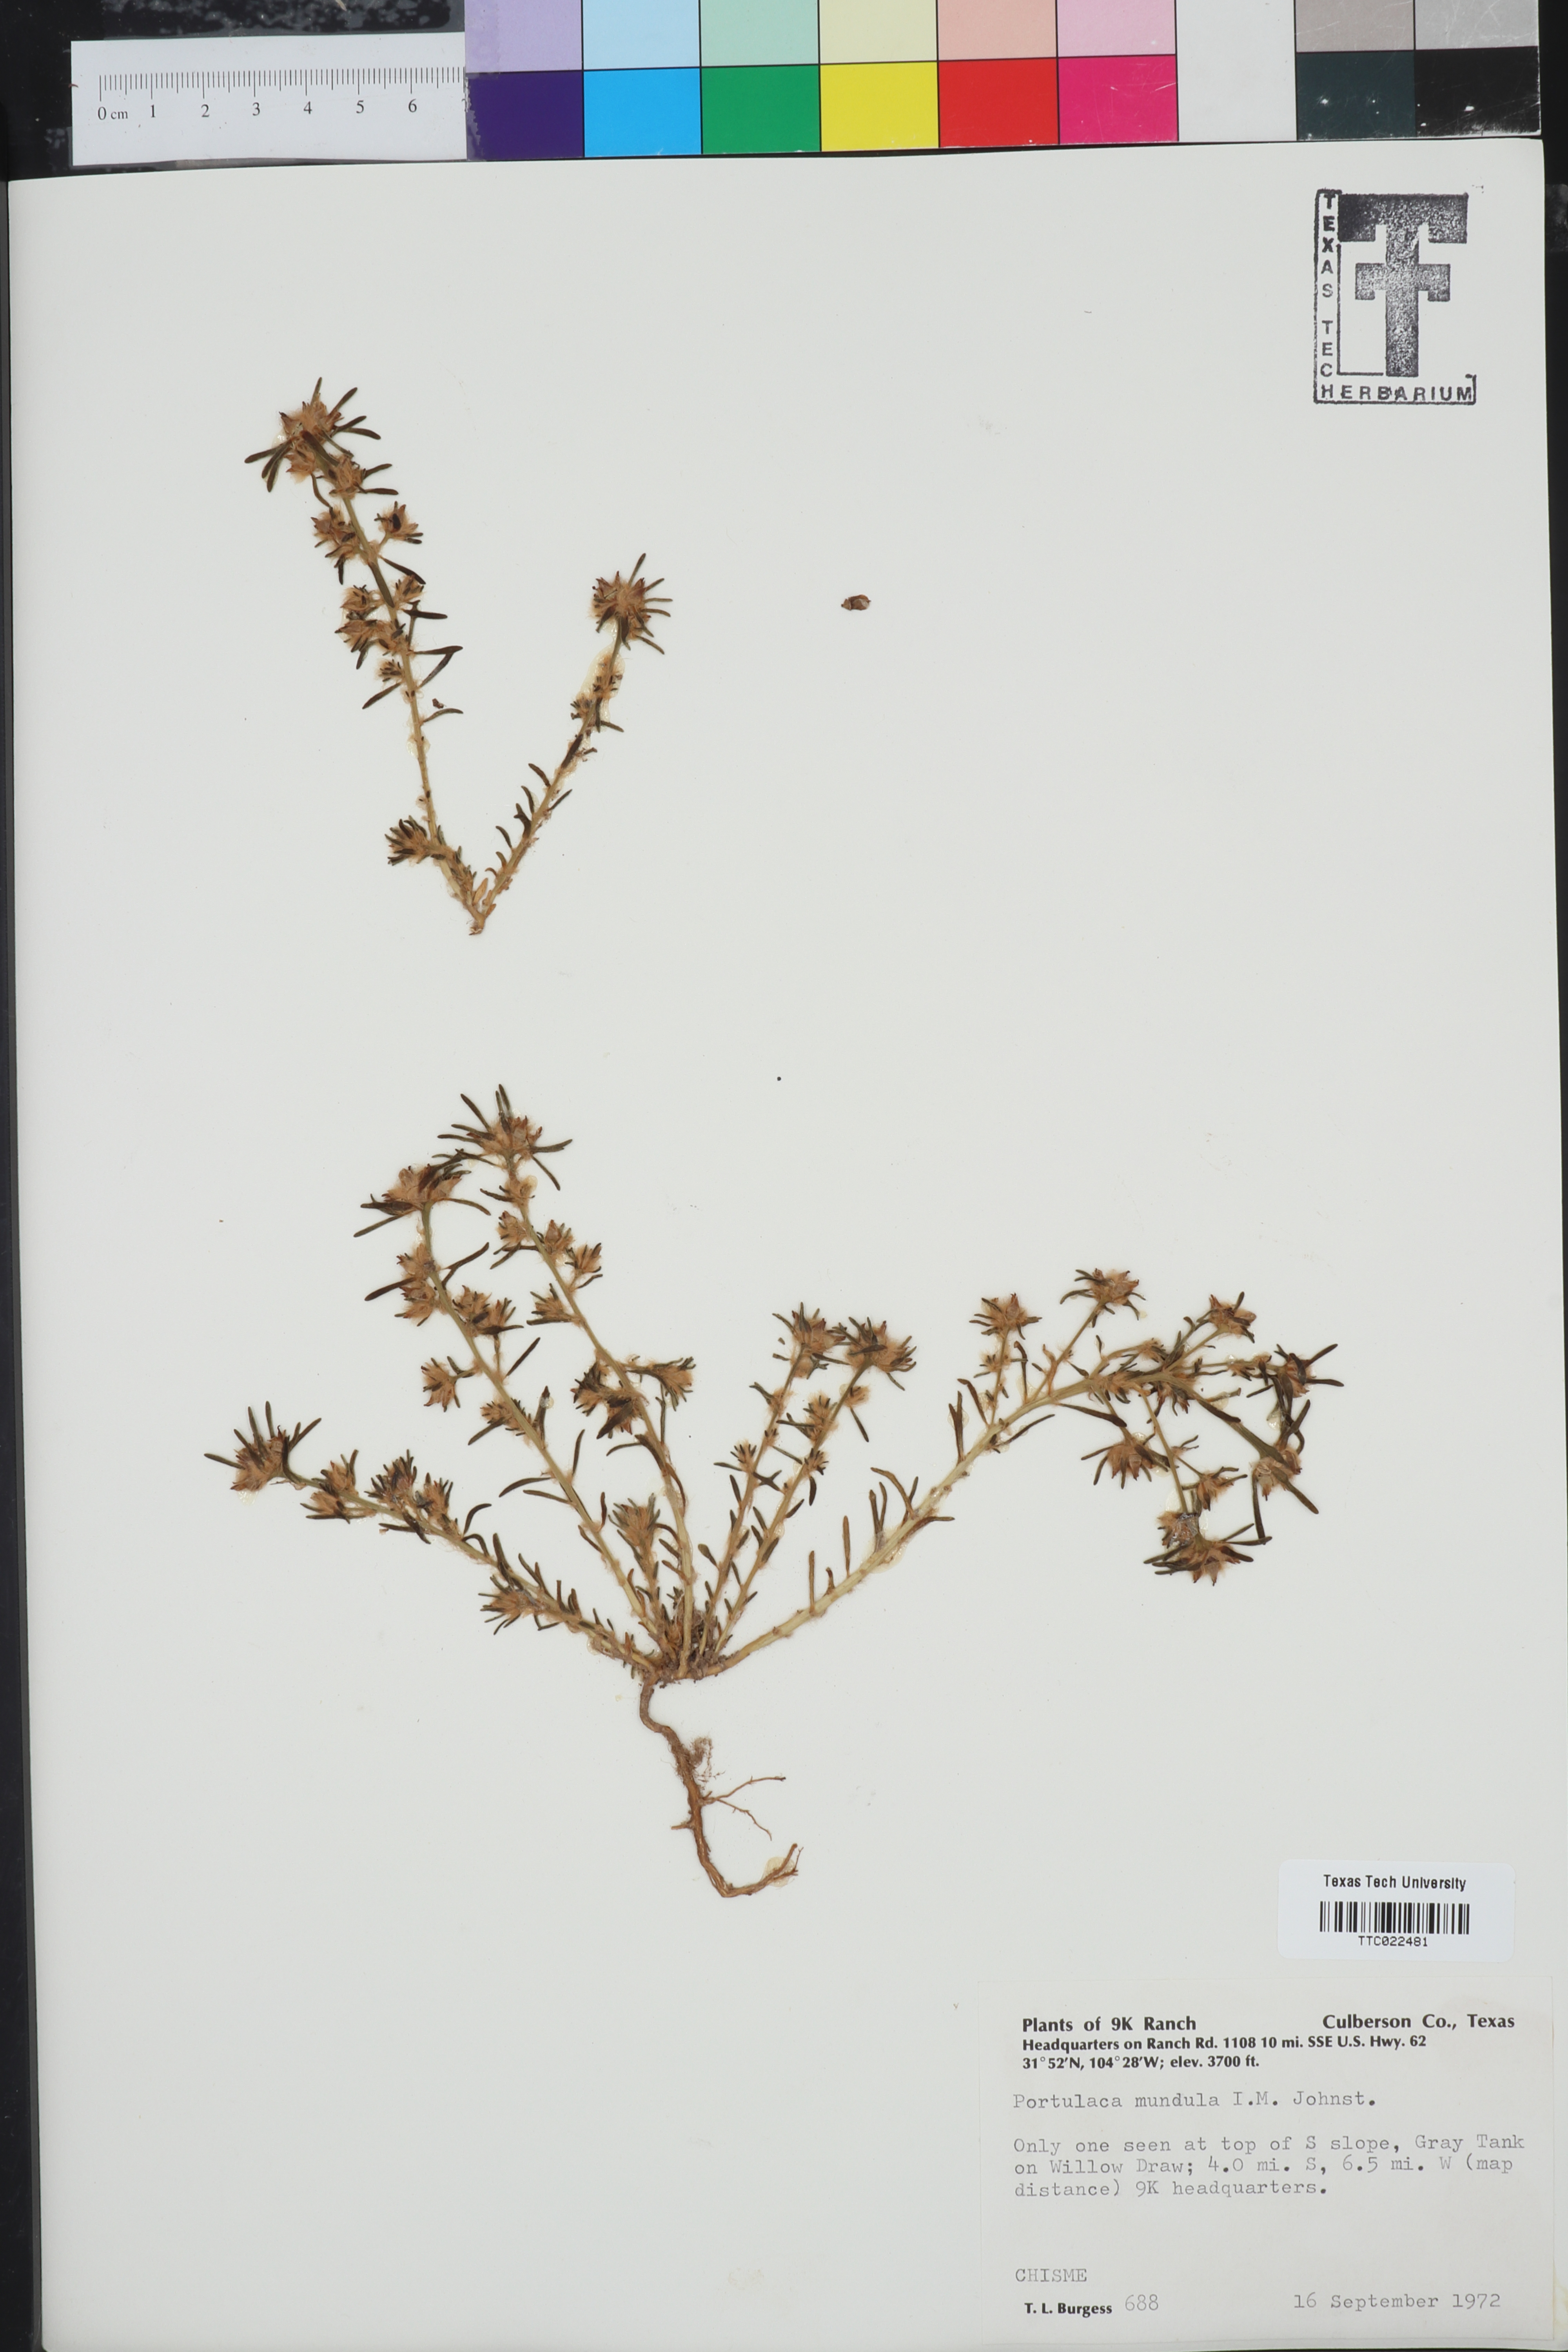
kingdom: Plantae
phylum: Tracheophyta
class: Magnoliopsida
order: Caryophyllales
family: Portulacaceae
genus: Portulaca
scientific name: Portulaca pilosa
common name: Kiss me quick
